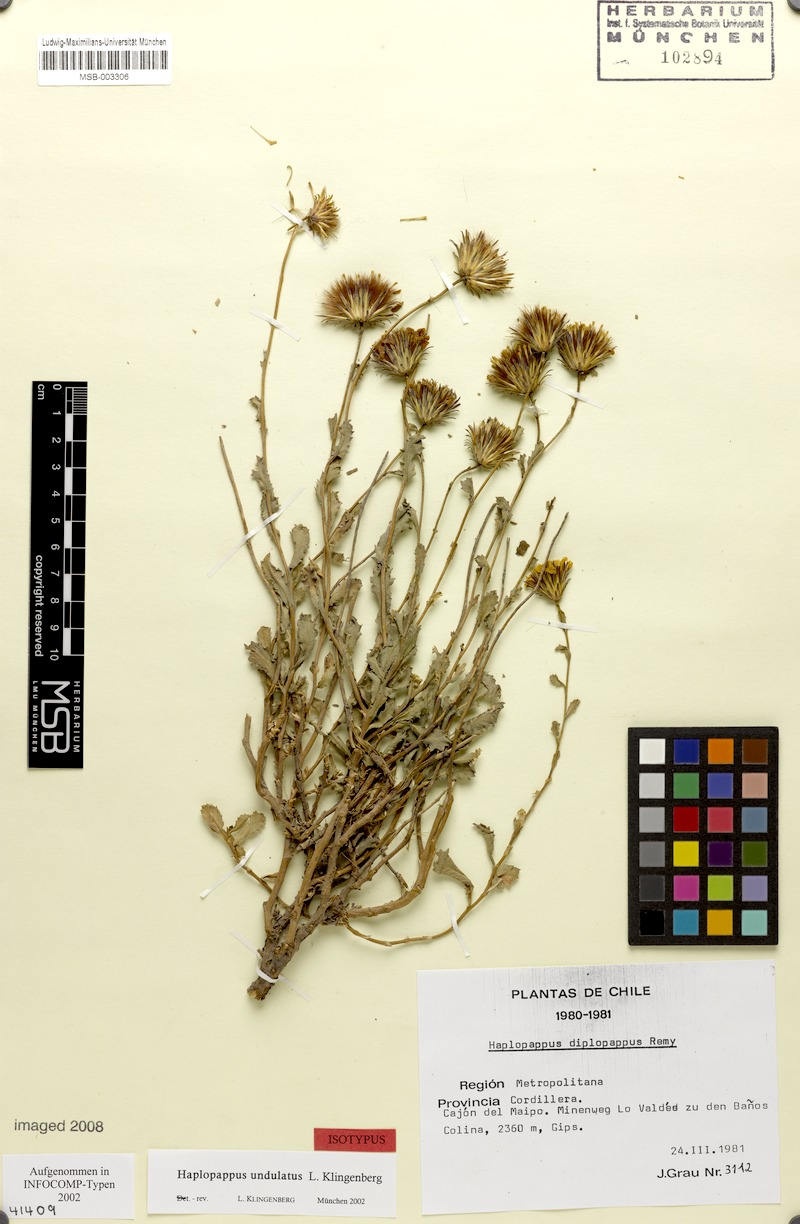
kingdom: Plantae
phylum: Tracheophyta
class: Magnoliopsida
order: Asterales
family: Asteraceae
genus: Haplopappus
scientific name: Haplopappus undulatus
